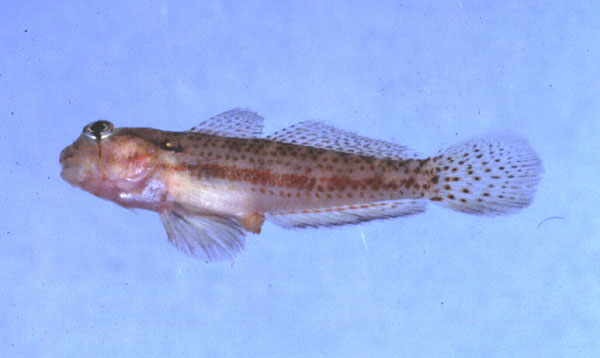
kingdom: Animalia
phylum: Chordata
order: Perciformes
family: Gobiidae
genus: Gnatholepis
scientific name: Gnatholepis
